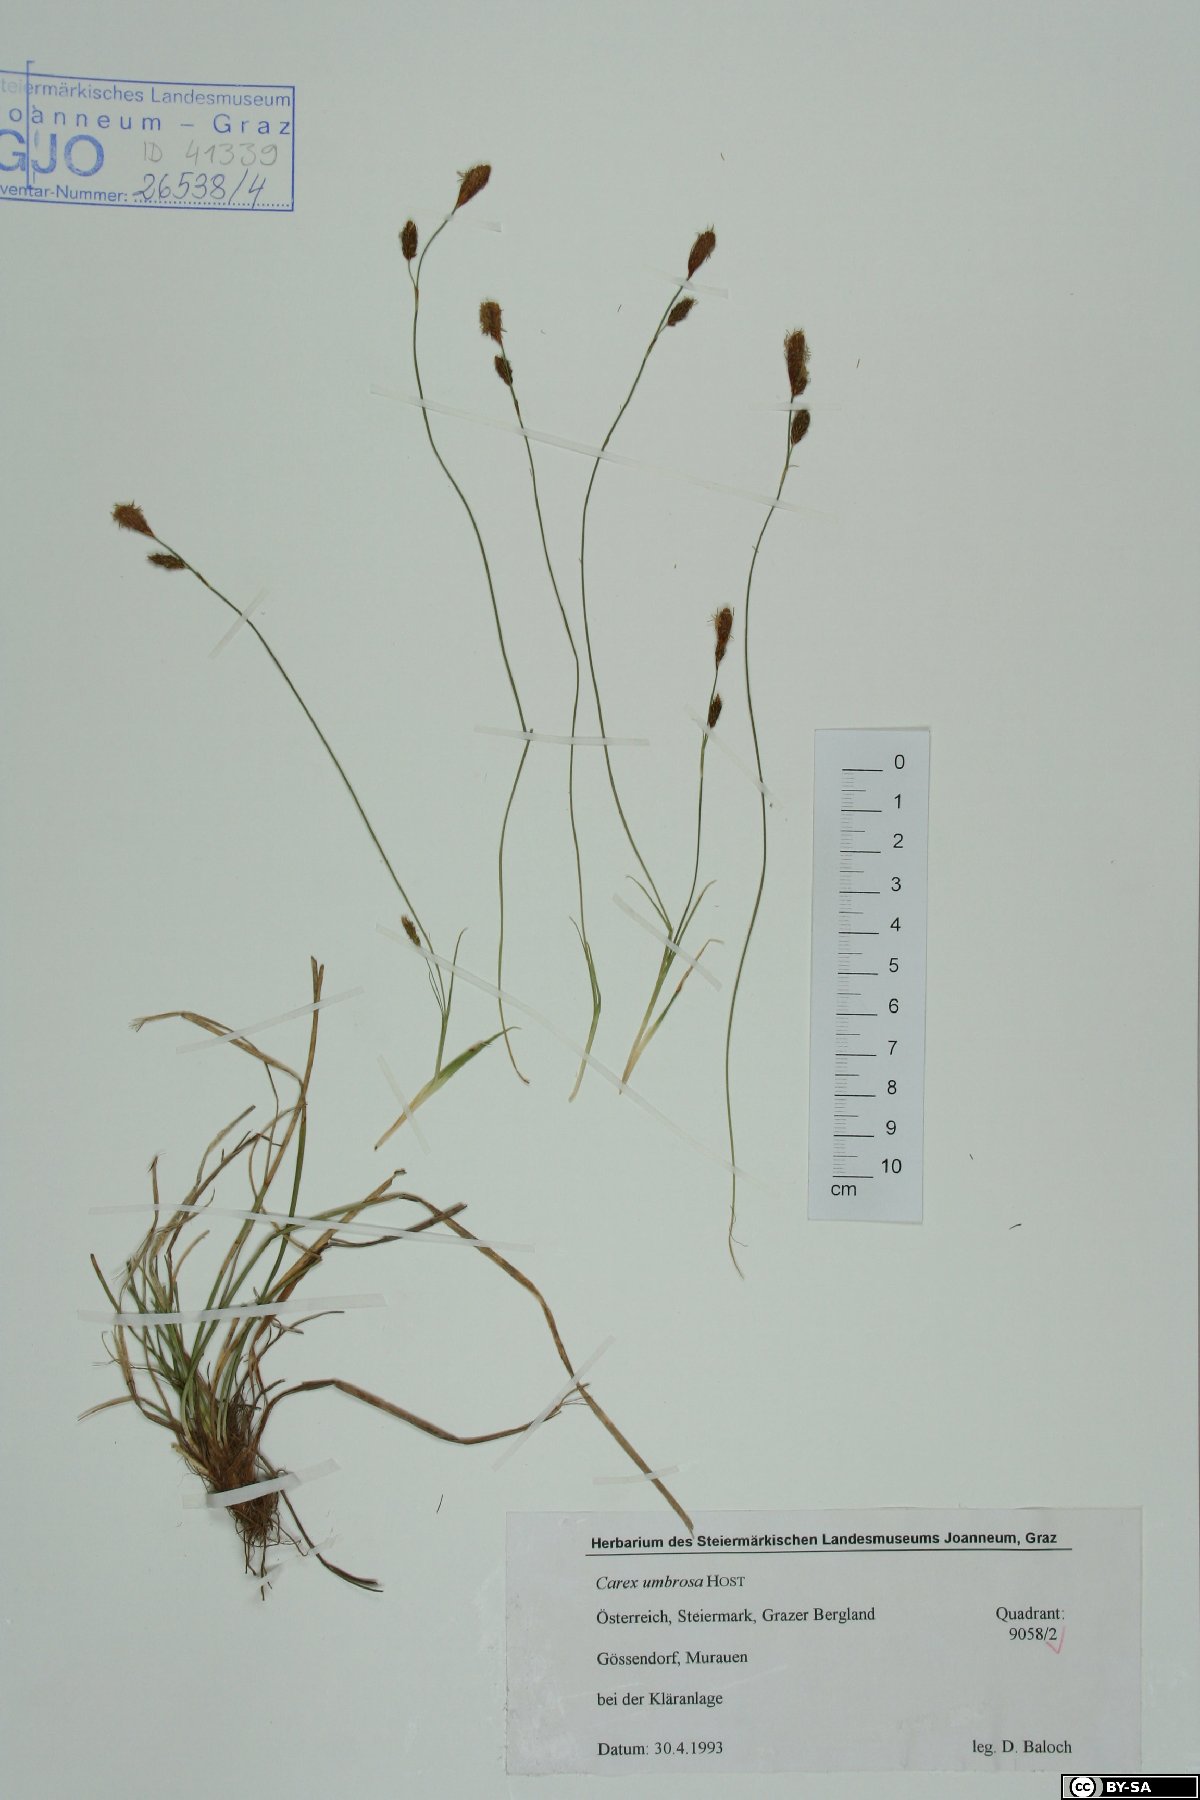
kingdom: Plantae
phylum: Tracheophyta
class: Liliopsida
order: Poales
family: Cyperaceae
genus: Carex
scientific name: Carex umbrosa
